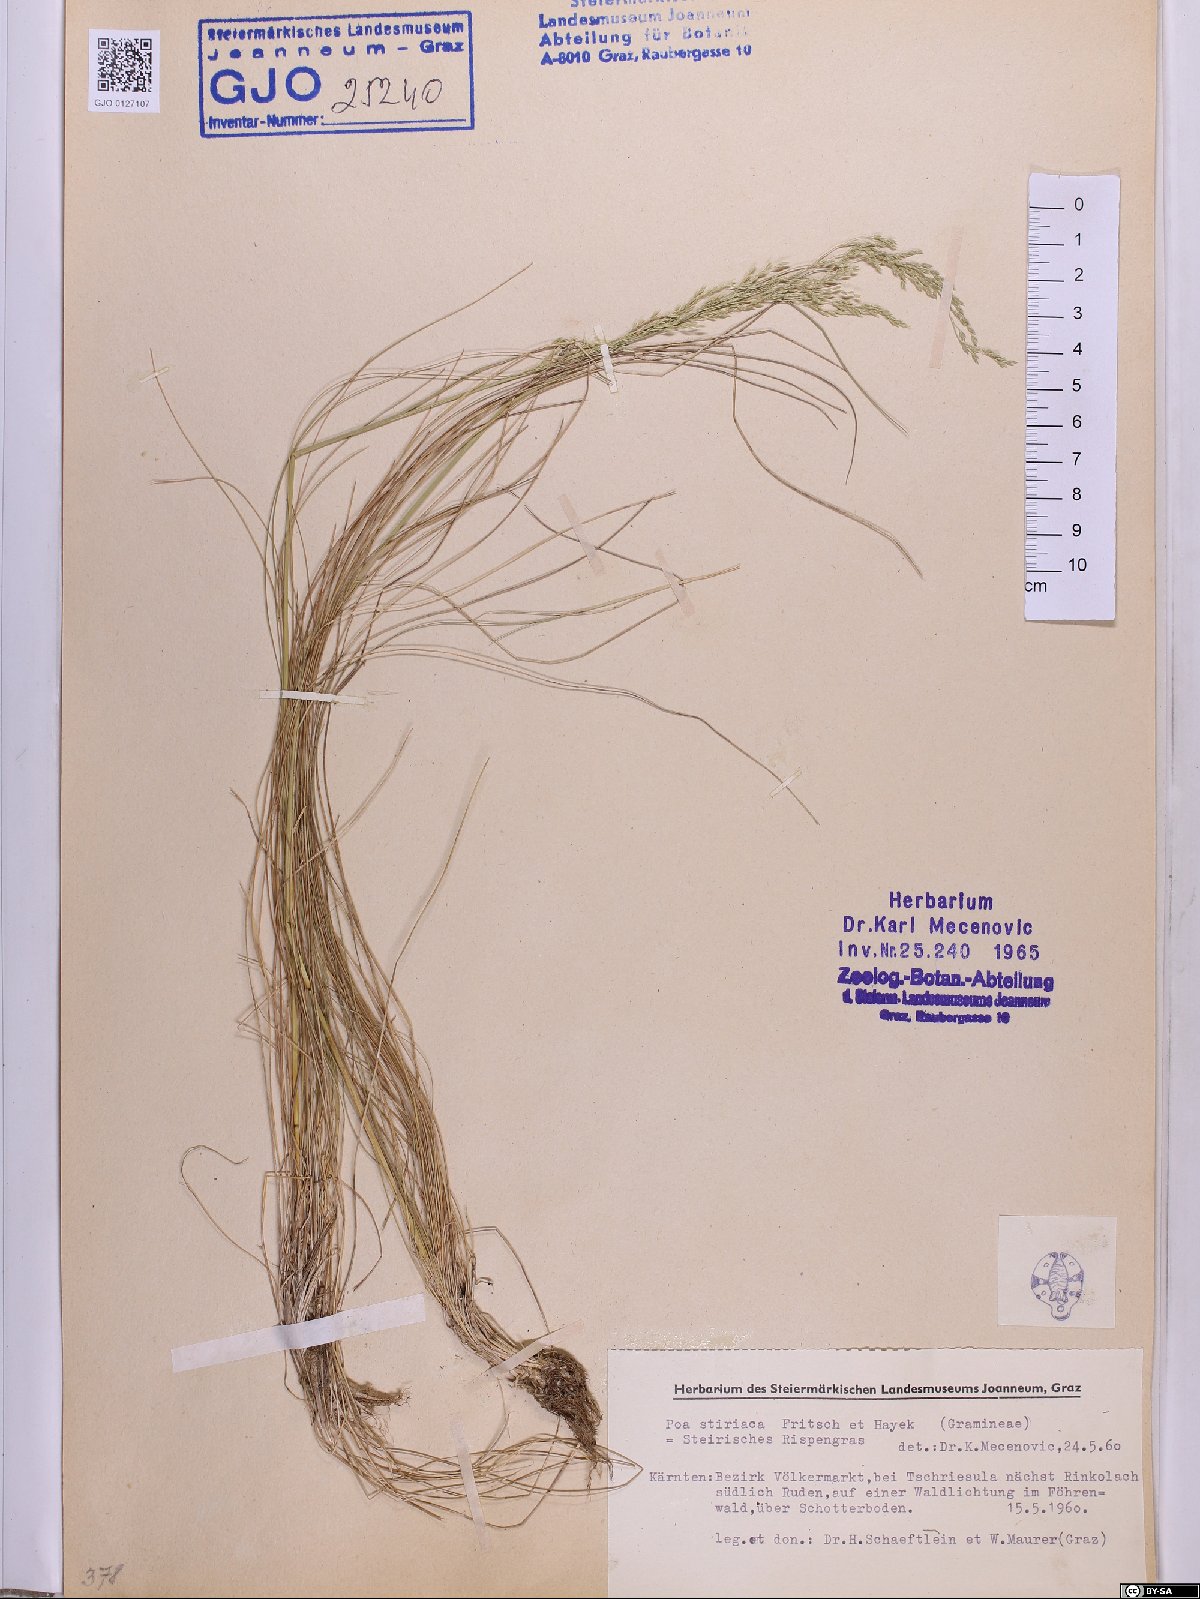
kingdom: Plantae
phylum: Tracheophyta
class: Liliopsida
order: Poales
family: Poaceae
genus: Poa
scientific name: Poa stiriaca
